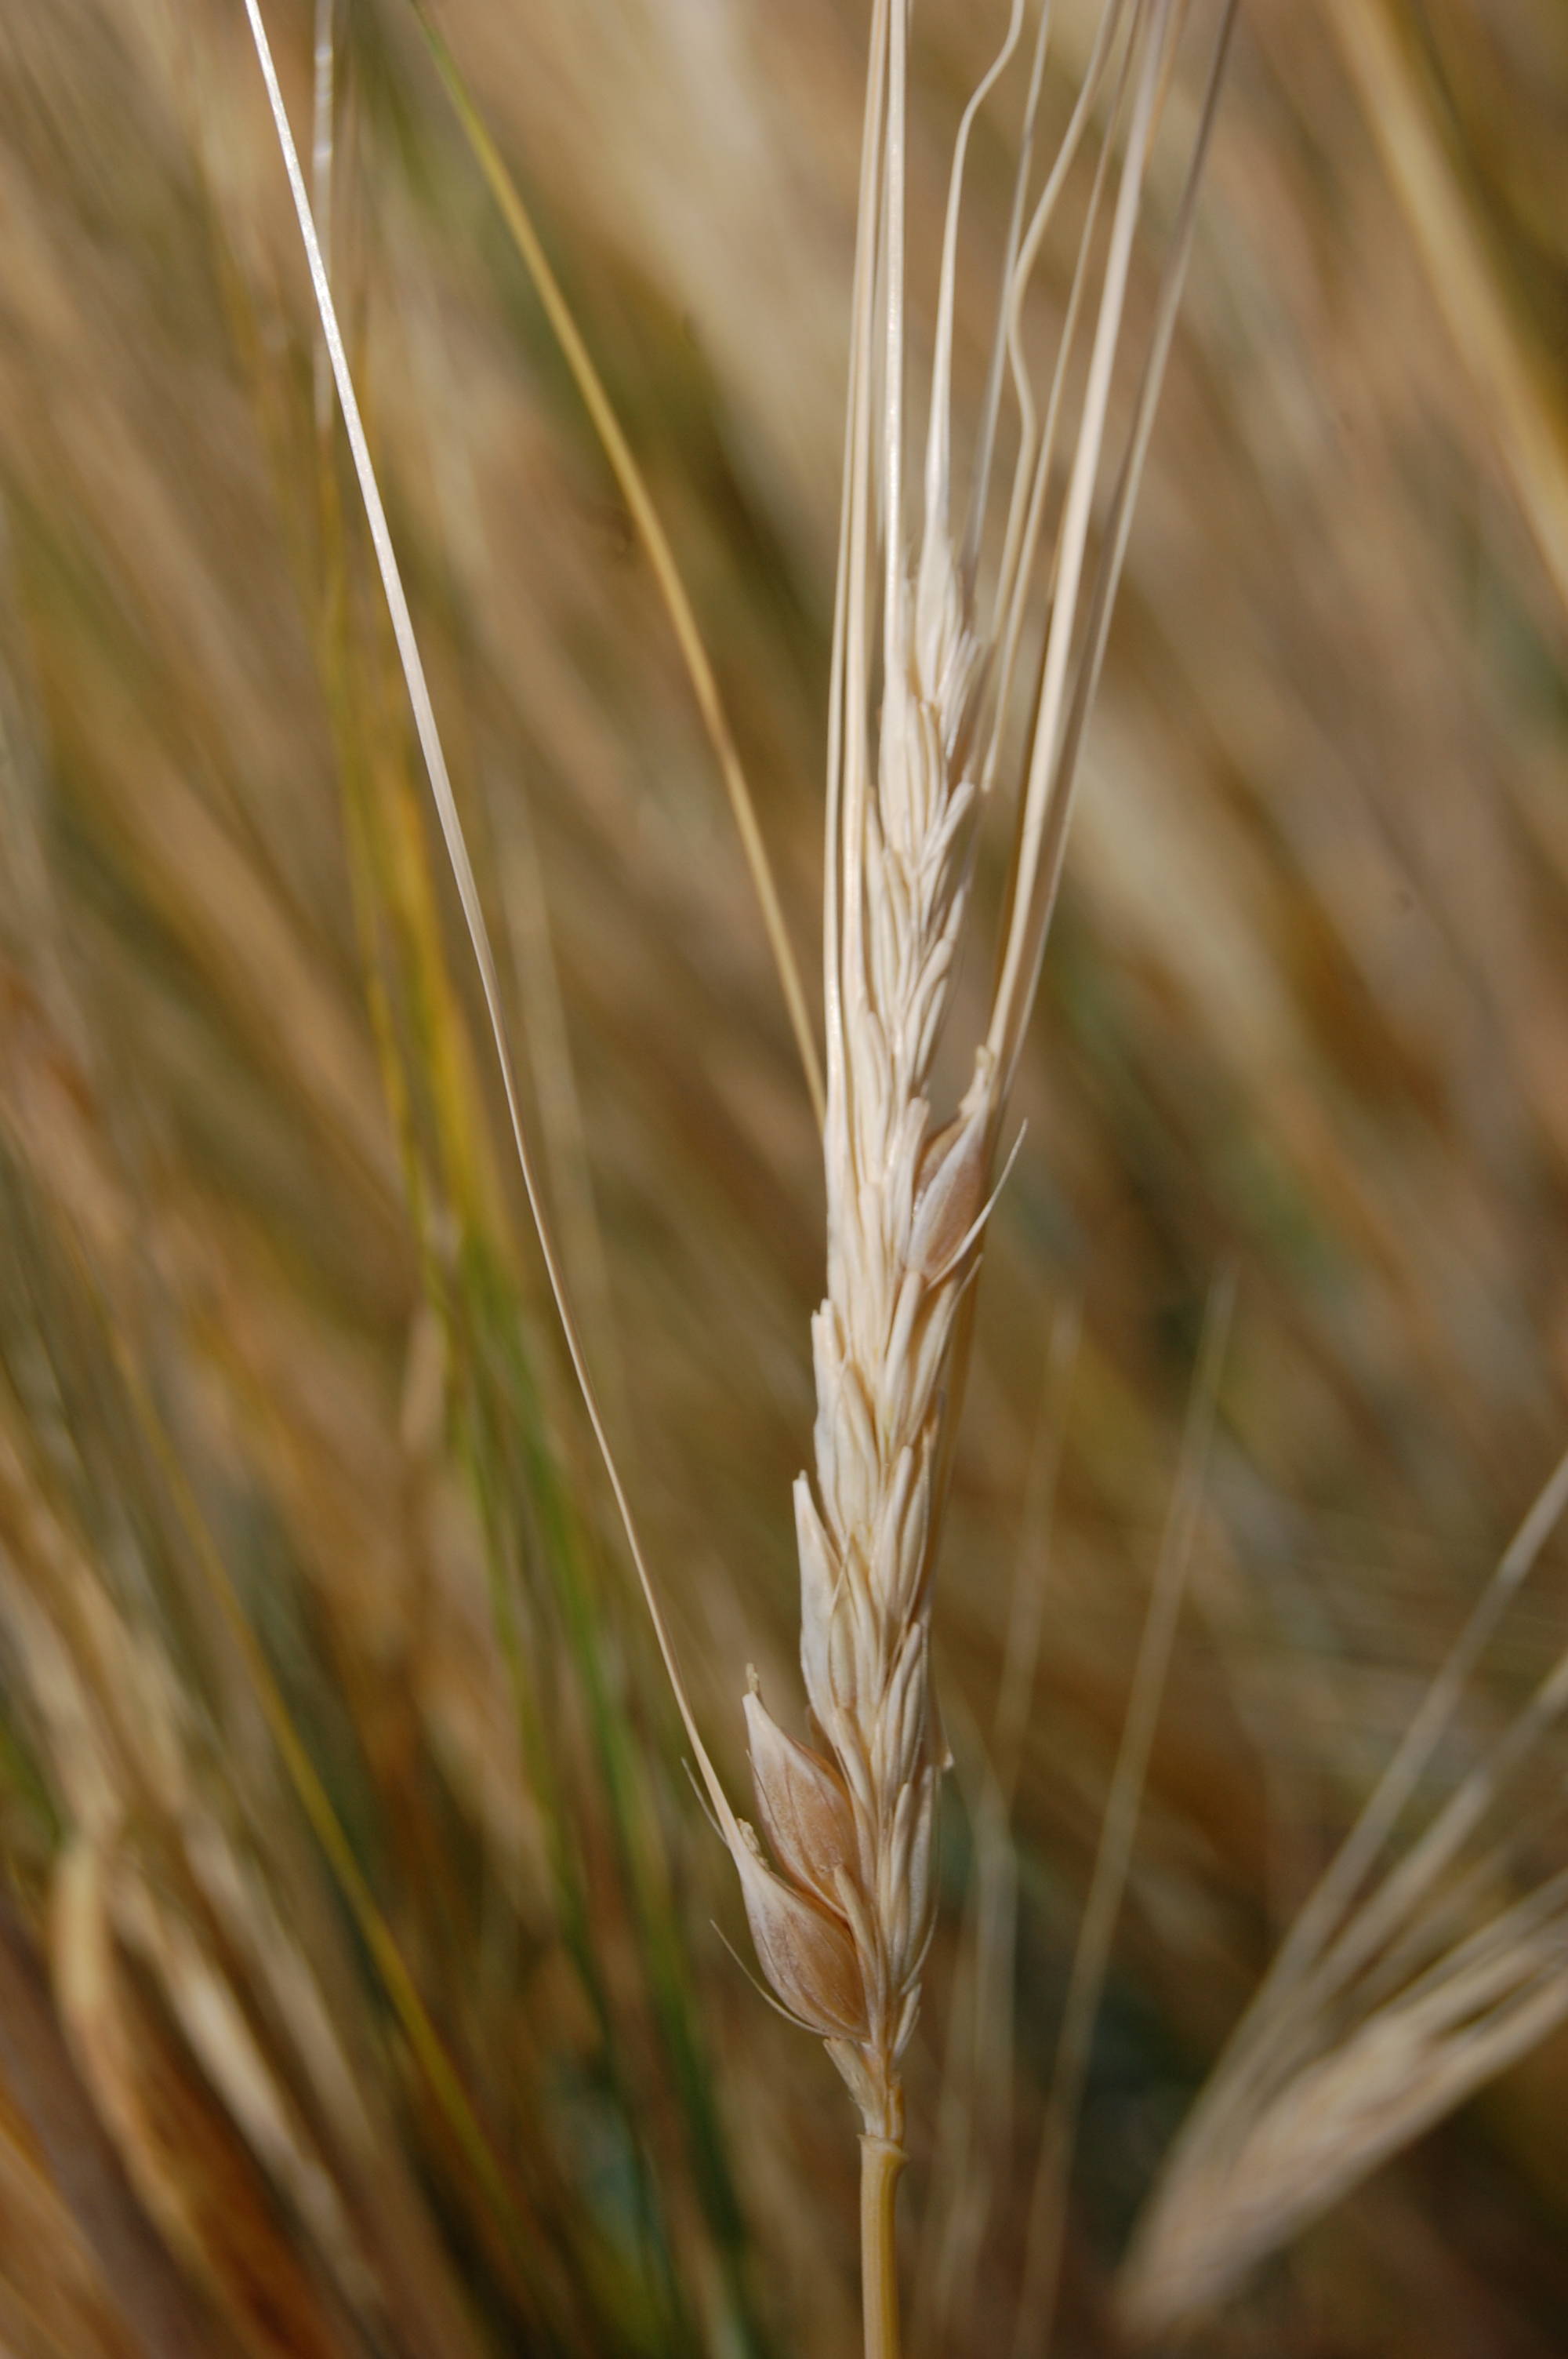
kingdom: Plantae
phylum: Tracheophyta
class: Liliopsida
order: Poales
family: Poaceae
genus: Hordeum
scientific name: Hordeum vulgare
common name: Common barley
